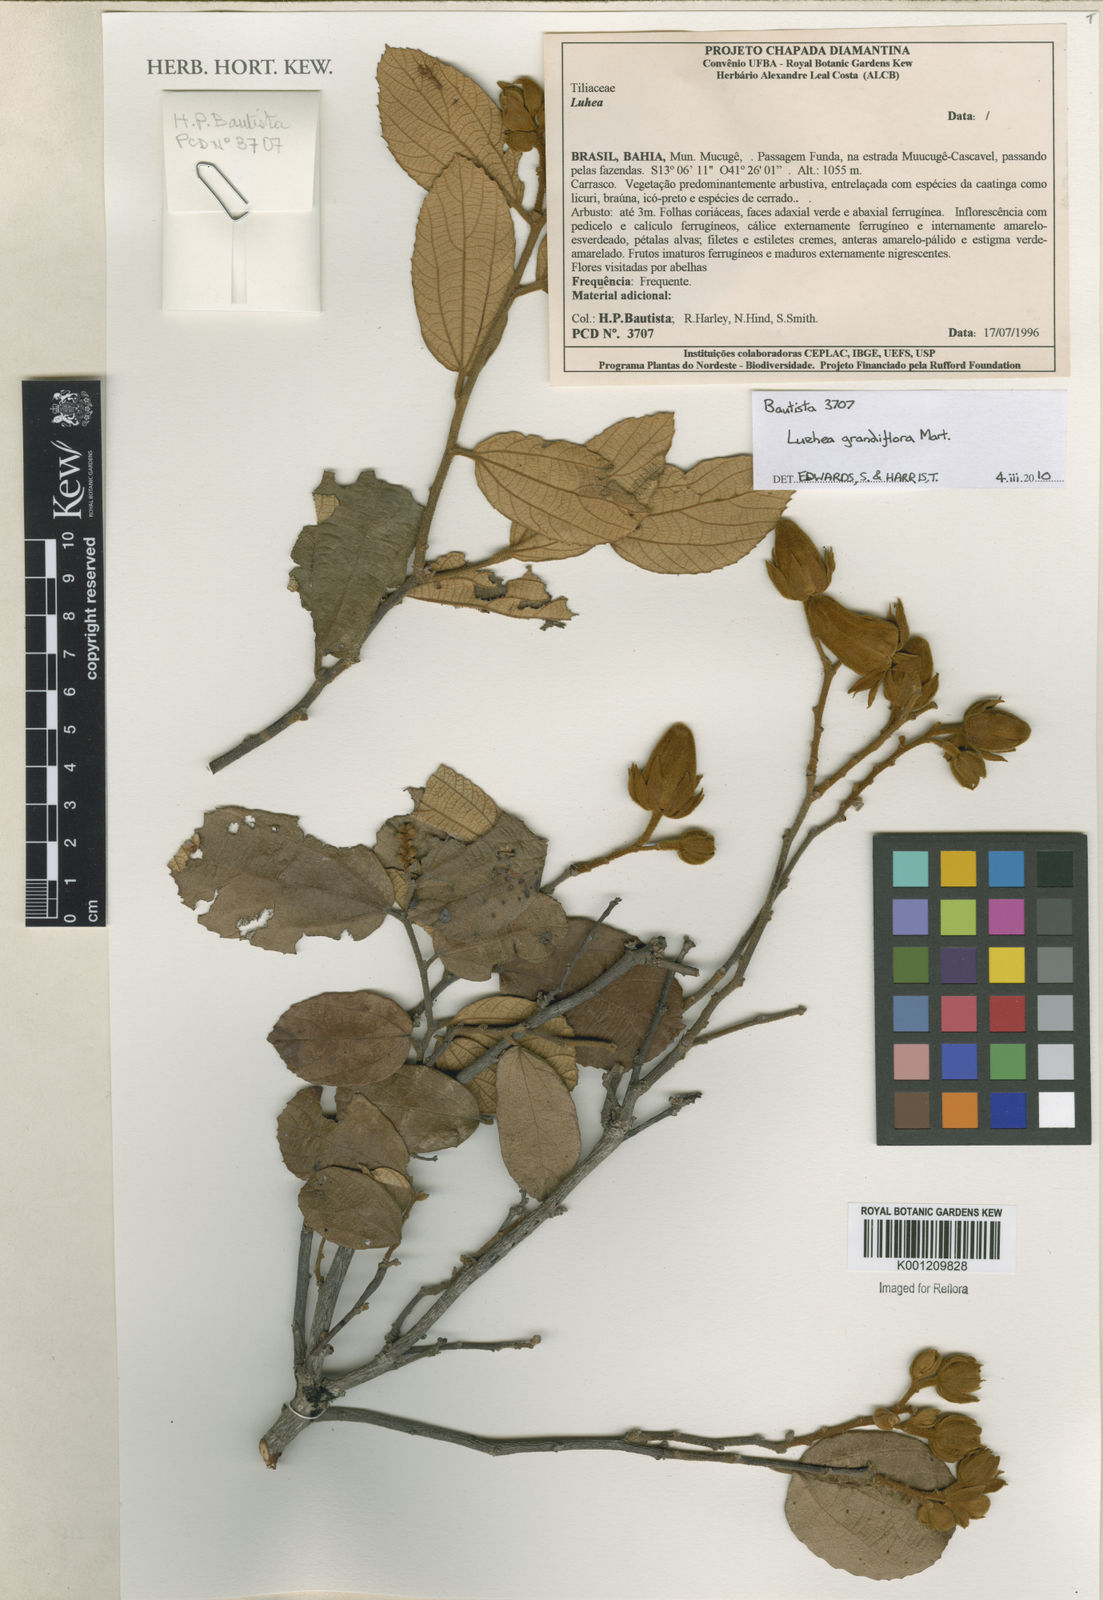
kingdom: Plantae
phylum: Tracheophyta
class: Magnoliopsida
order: Malvales
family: Malvaceae
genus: Luehea
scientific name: Luehea grandiflora
